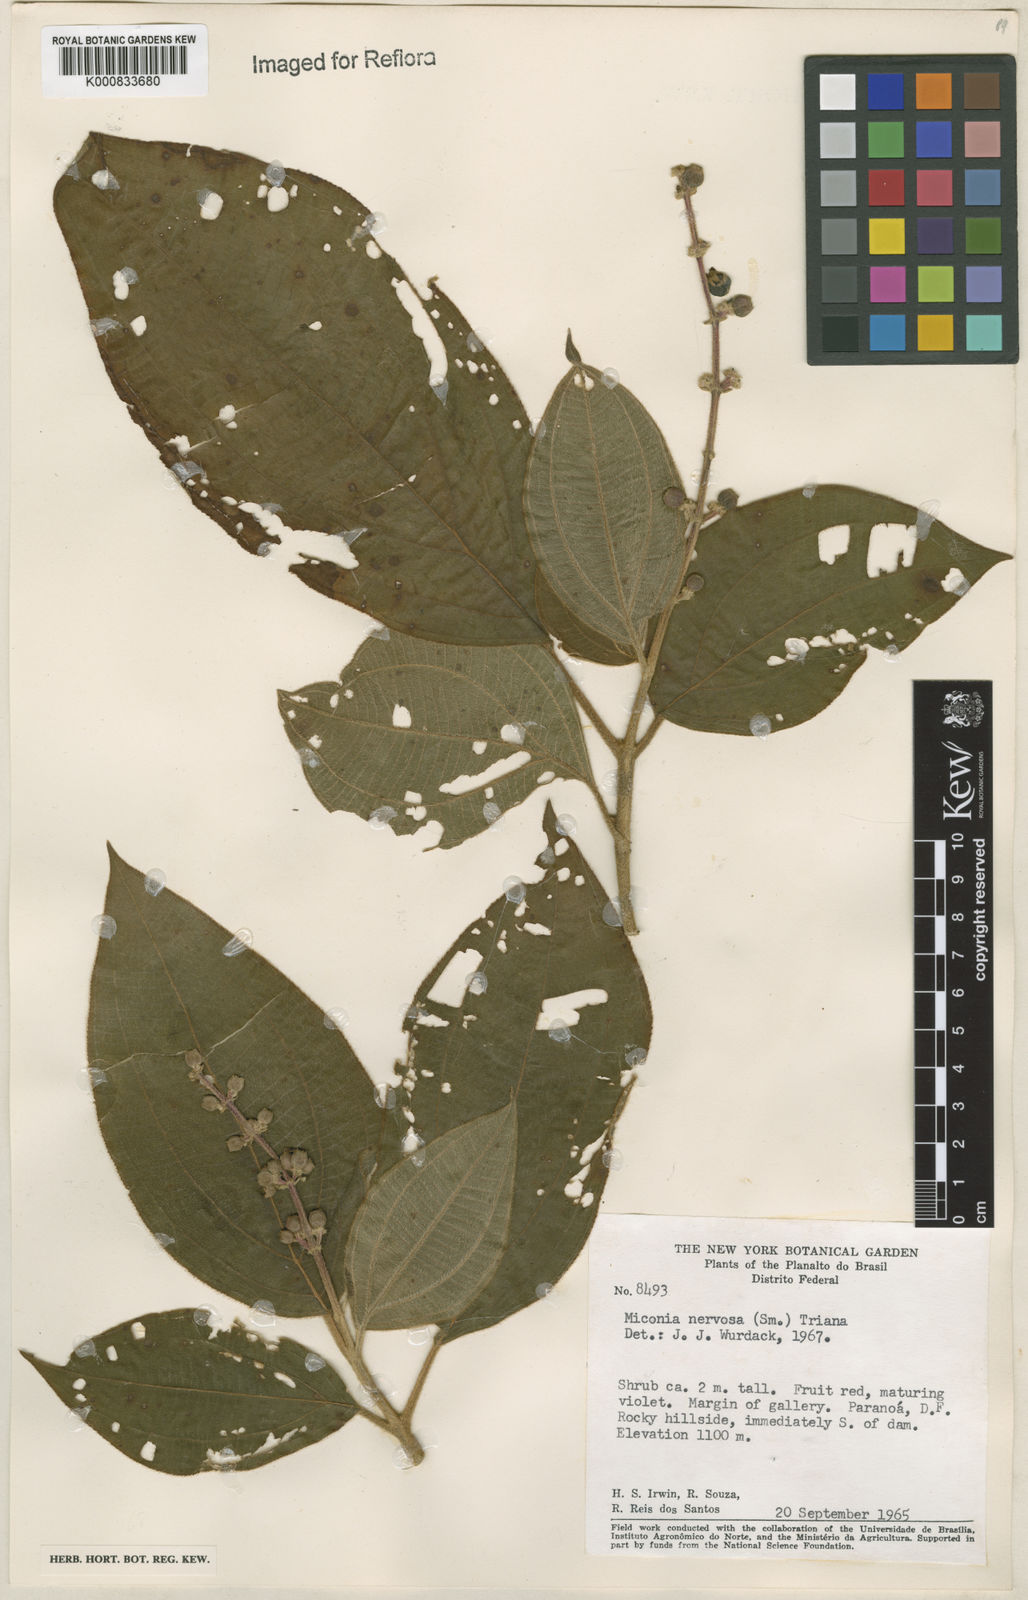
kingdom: Plantae
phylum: Tracheophyta
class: Magnoliopsida
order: Myrtales
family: Melastomataceae
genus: Miconia
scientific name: Miconia nervosa
